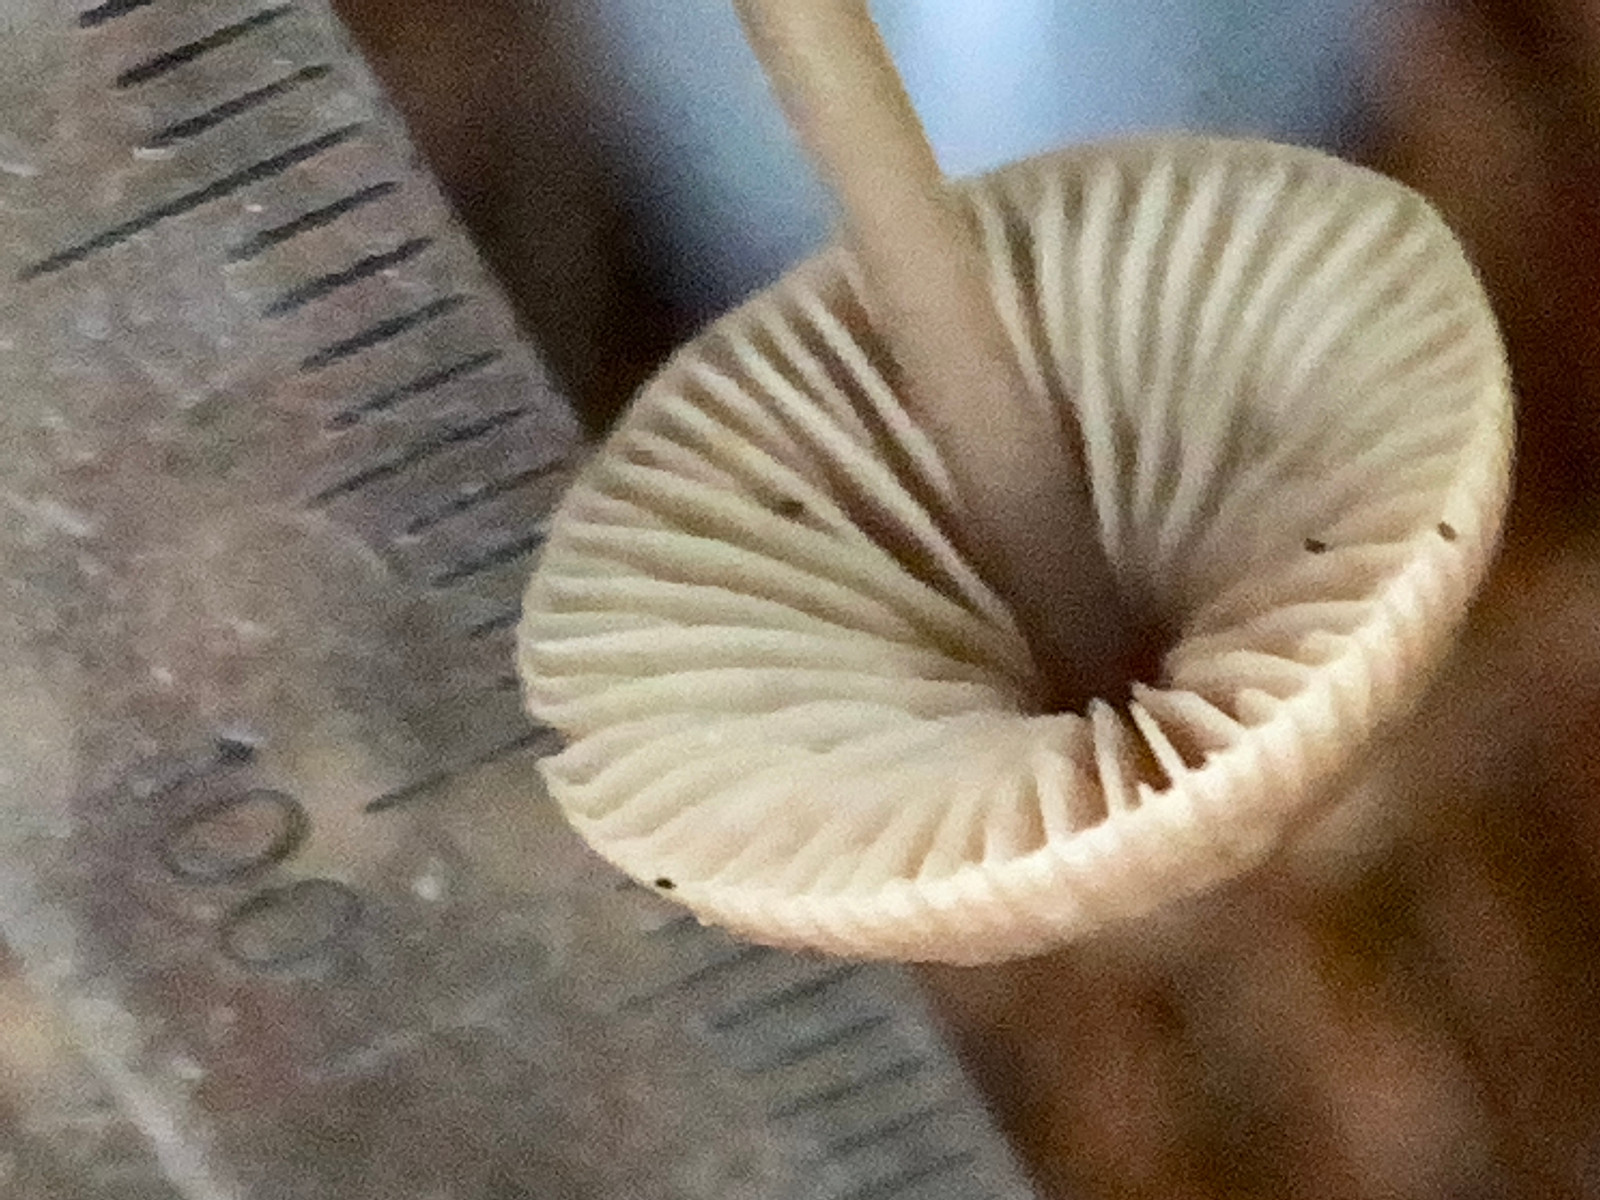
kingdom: Fungi
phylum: Basidiomycota
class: Agaricomycetes
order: Agaricales
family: Omphalotaceae
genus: Mycetinis
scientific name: Mycetinis alliaceus
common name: stor løghat
